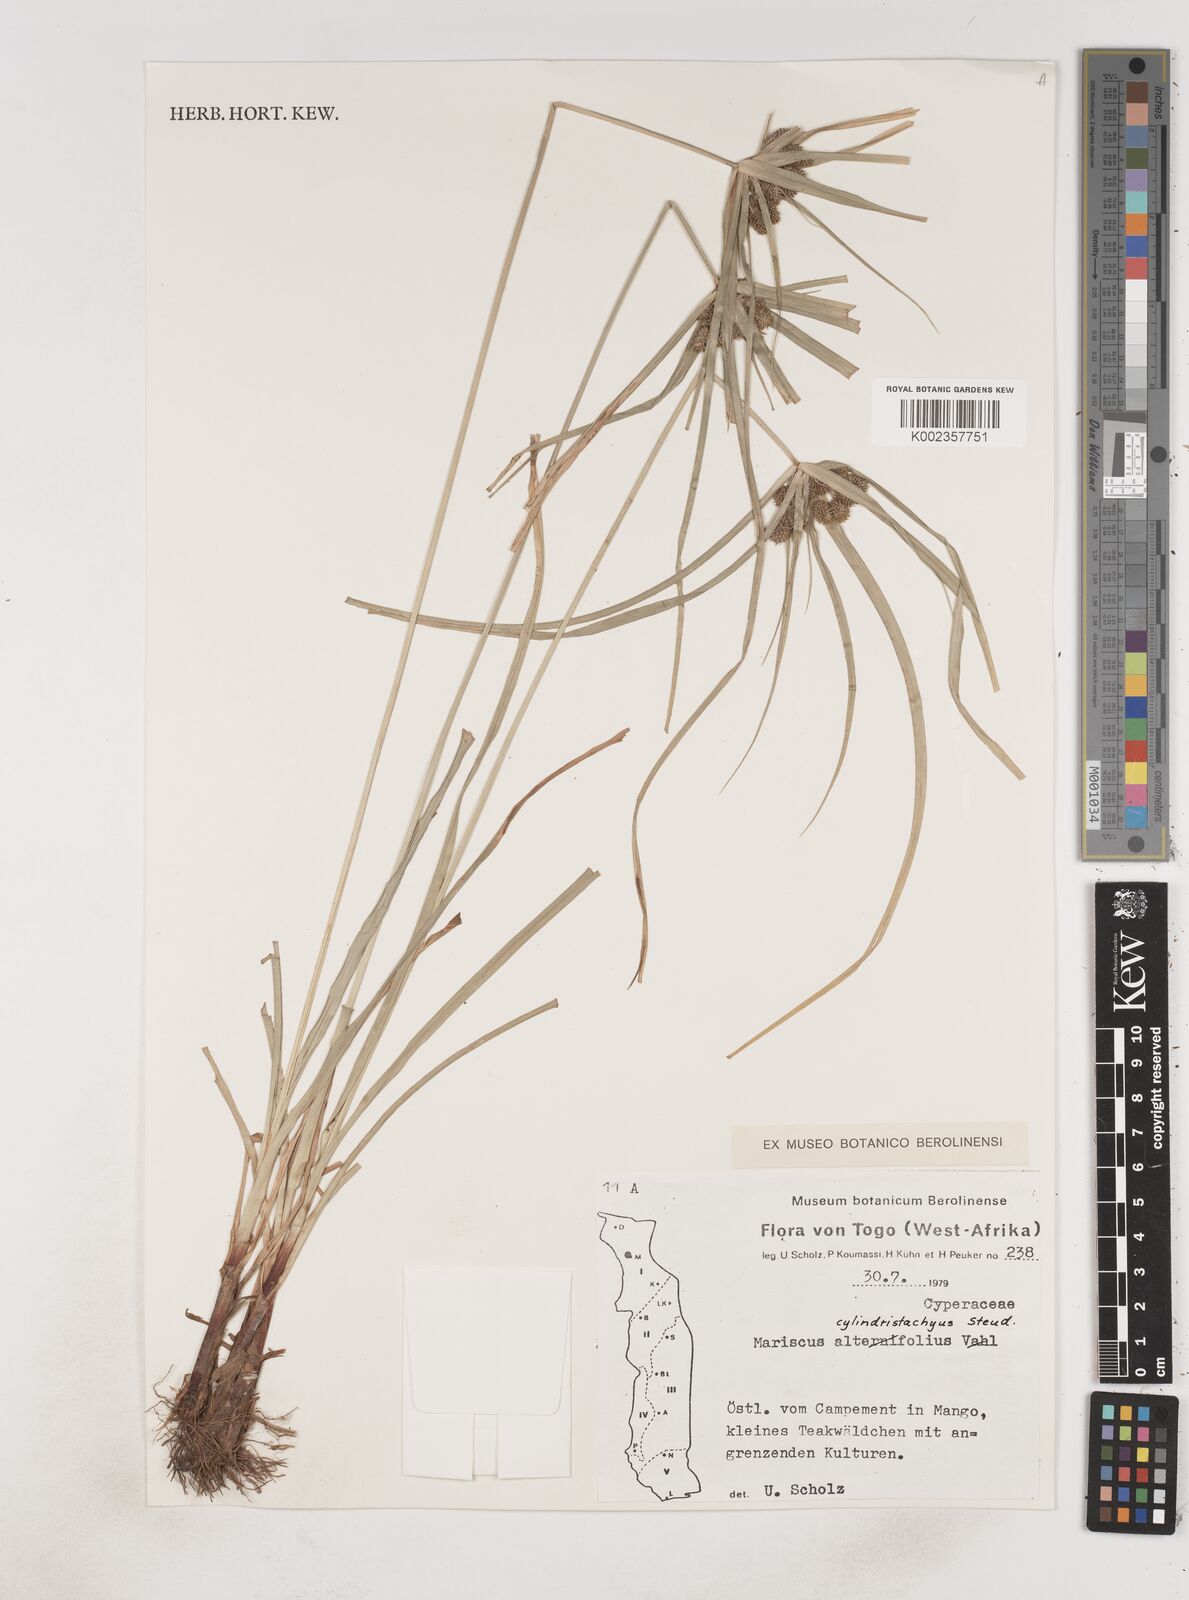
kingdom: Plantae
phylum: Tracheophyta
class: Liliopsida
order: Poales
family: Cyperaceae
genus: Cyperus
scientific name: Cyperus alternifolius
